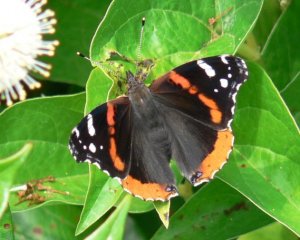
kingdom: Animalia
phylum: Arthropoda
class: Insecta
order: Lepidoptera
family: Nymphalidae
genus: Vanessa
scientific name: Vanessa atalanta
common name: Red Admiral
